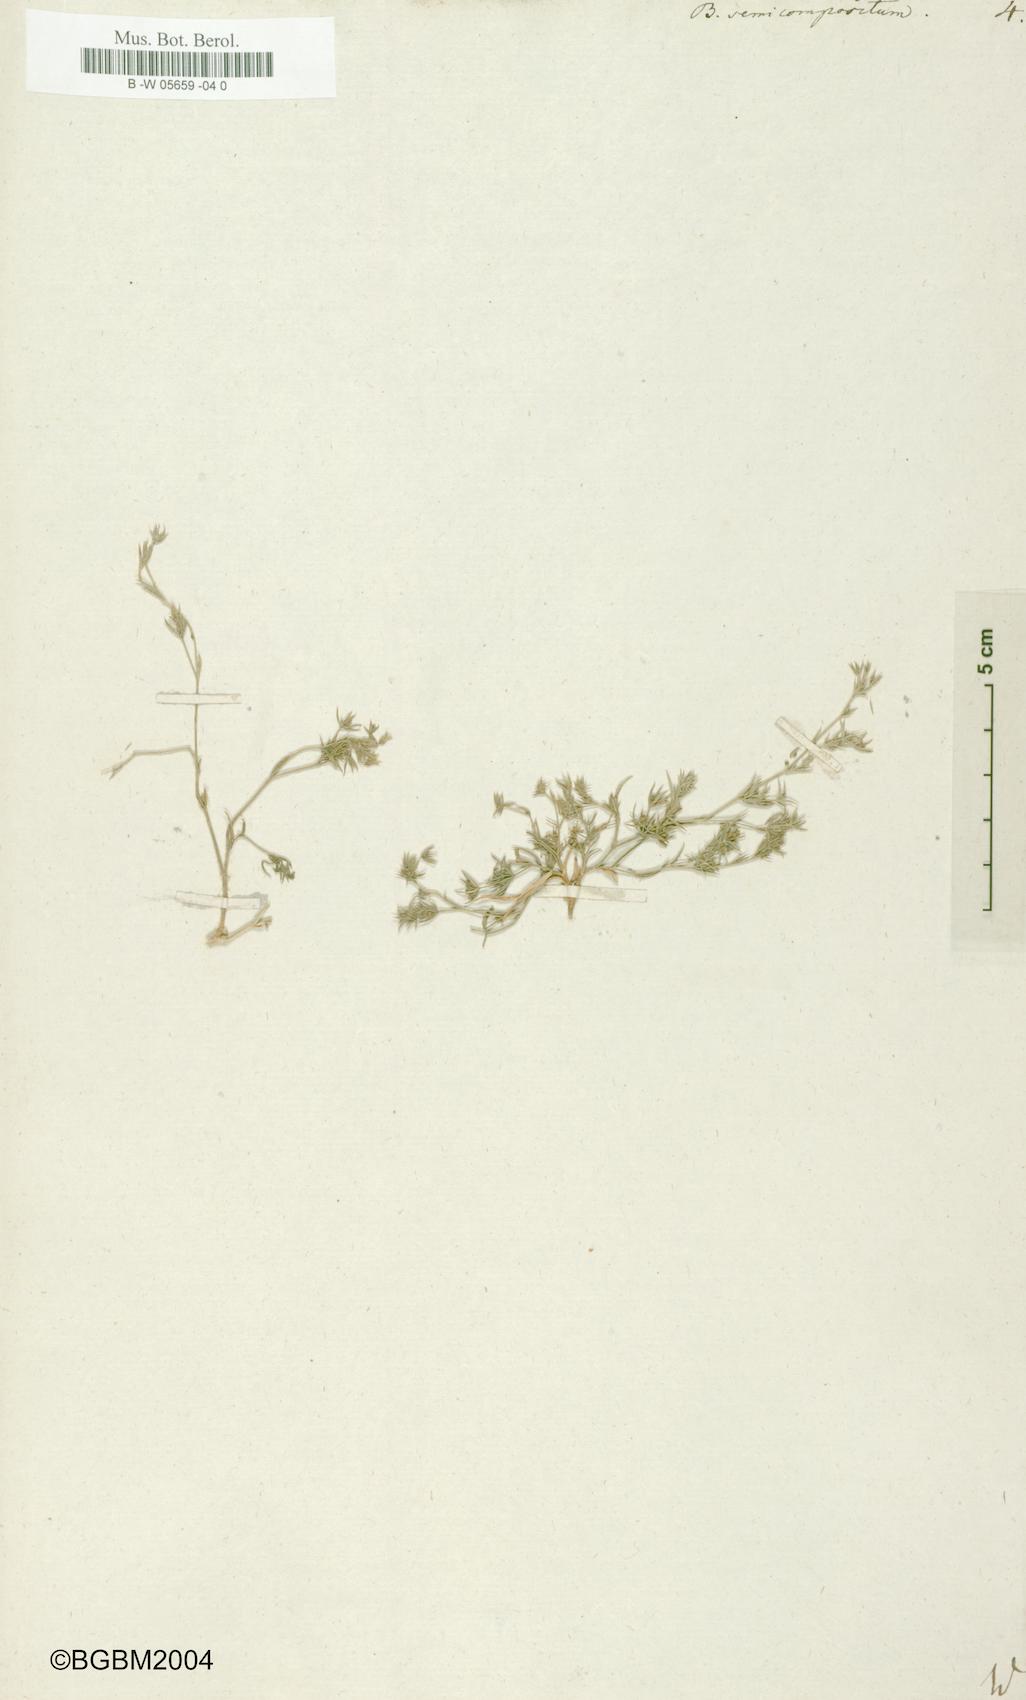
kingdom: Plantae
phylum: Tracheophyta
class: Magnoliopsida
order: Apiales
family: Apiaceae
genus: Bupleurum
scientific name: Bupleurum semicompositum
